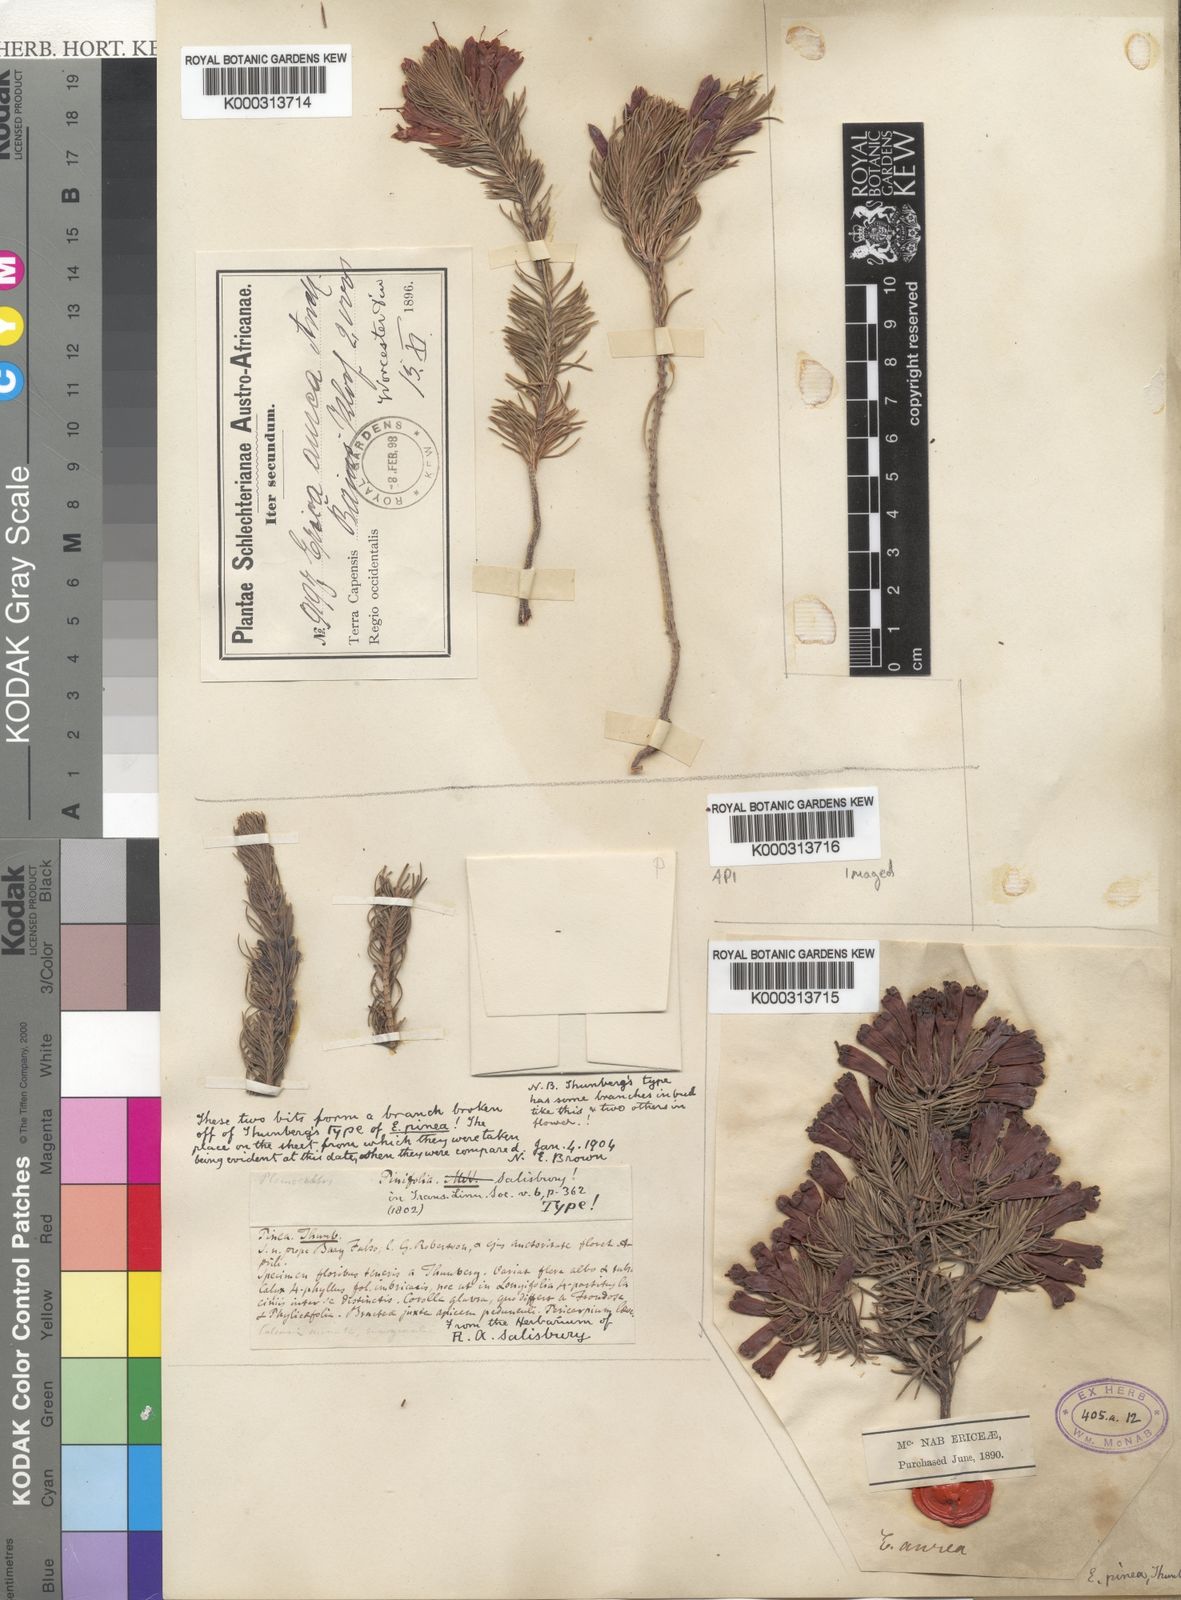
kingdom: Plantae
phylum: Tracheophyta
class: Magnoliopsida
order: Ericales
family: Ericaceae
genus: Erica
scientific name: Erica pinea
